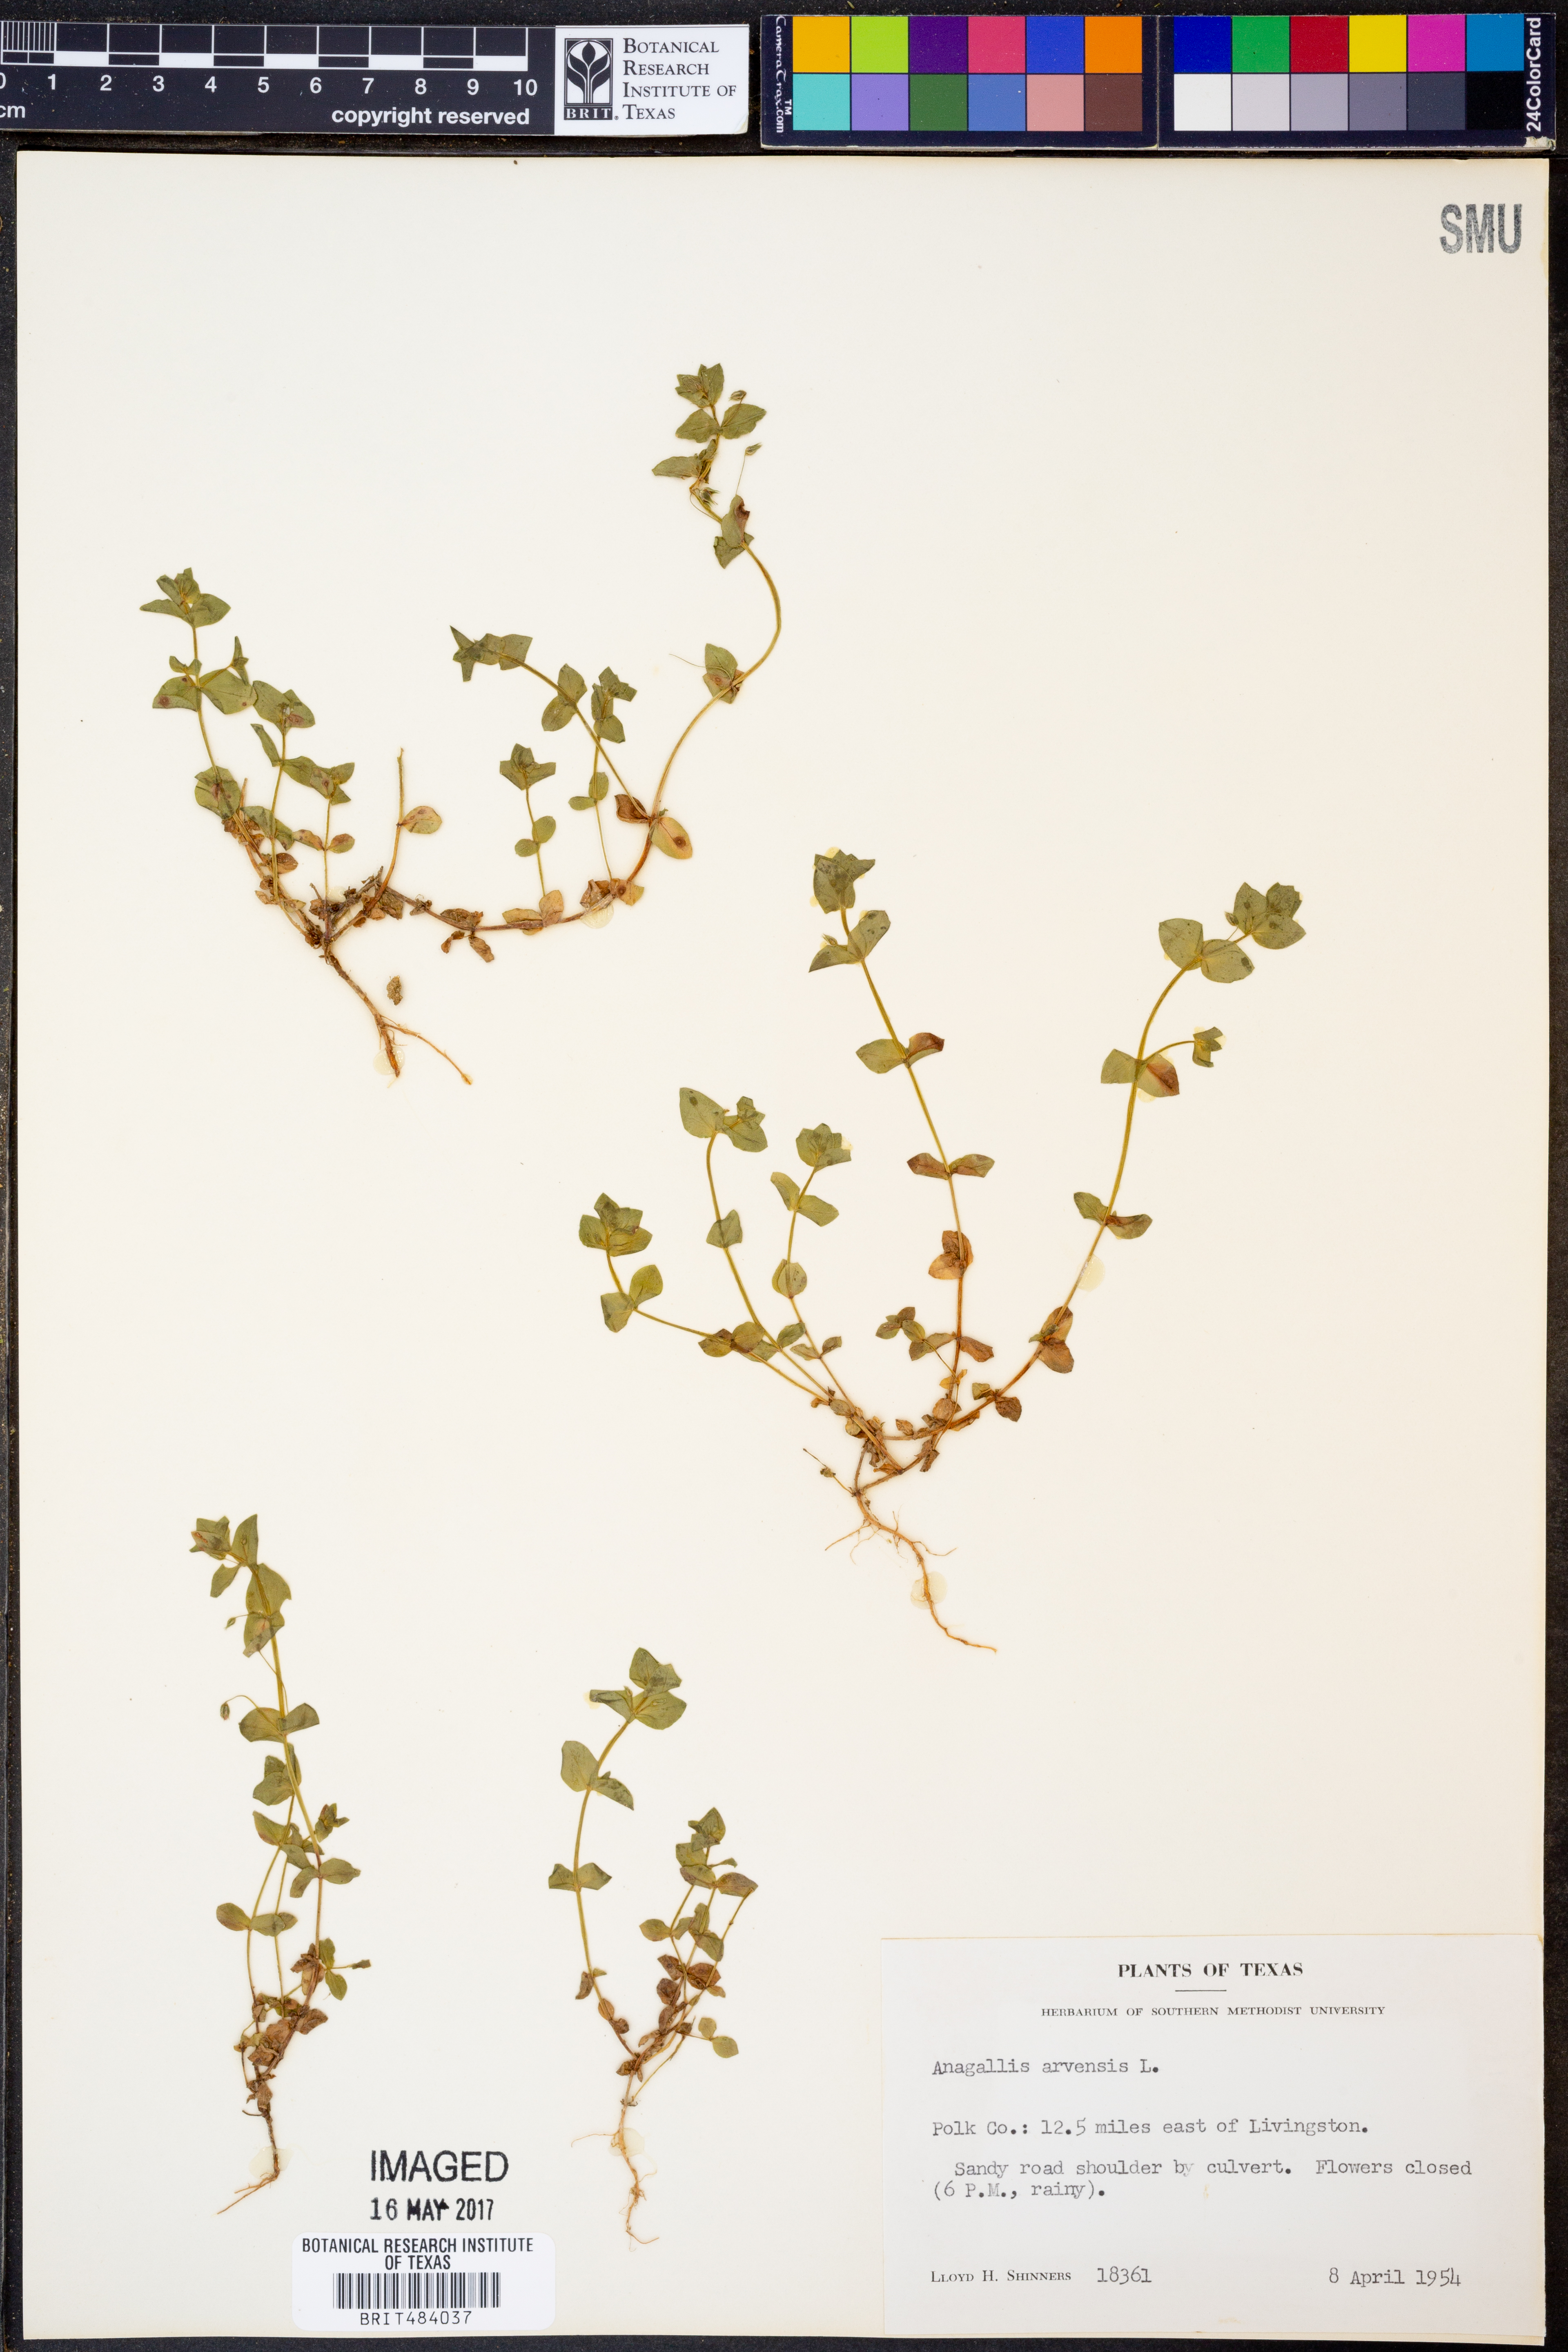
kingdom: Plantae
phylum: Tracheophyta
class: Magnoliopsida
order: Ericales
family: Primulaceae
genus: Lysimachia
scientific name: Lysimachia arvensis
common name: Scarlet pimpernel
